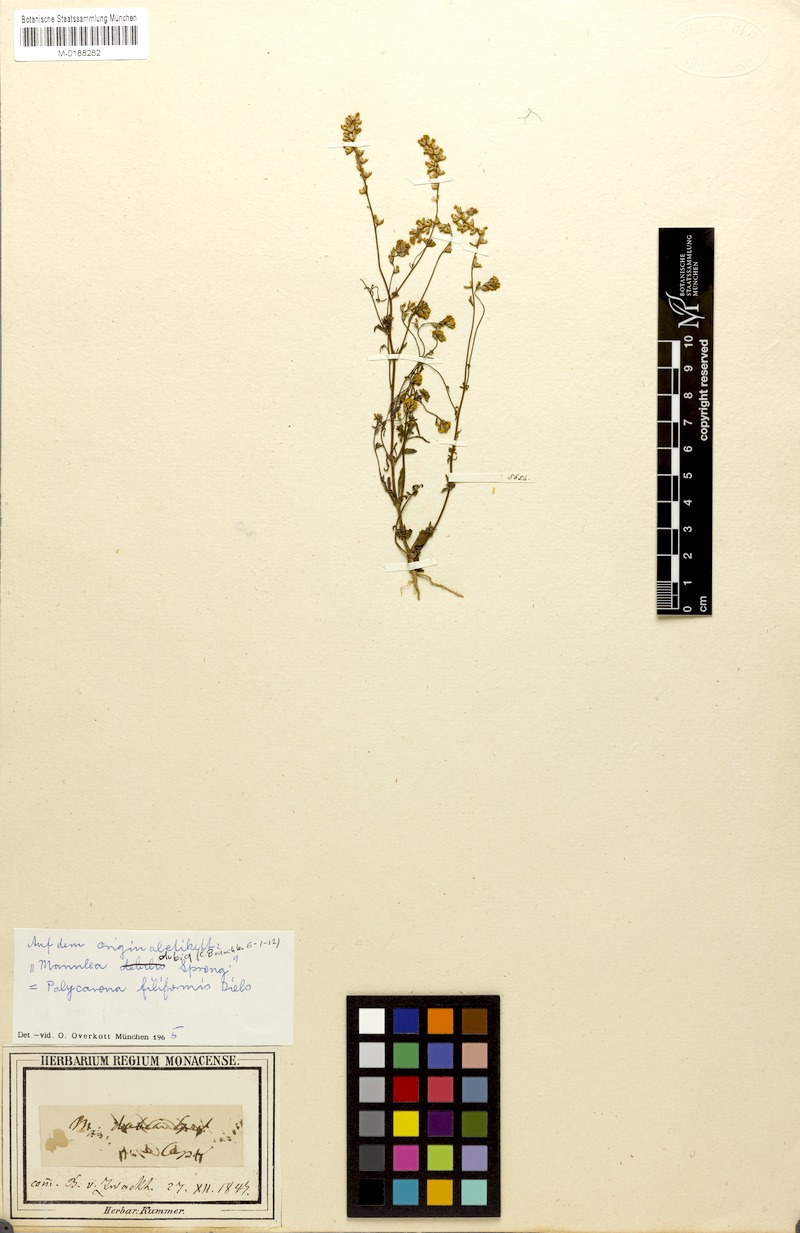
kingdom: Plantae
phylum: Tracheophyta
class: Magnoliopsida
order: Lamiales
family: Scrophulariaceae
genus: Polycarena
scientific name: Polycarena filiformis
